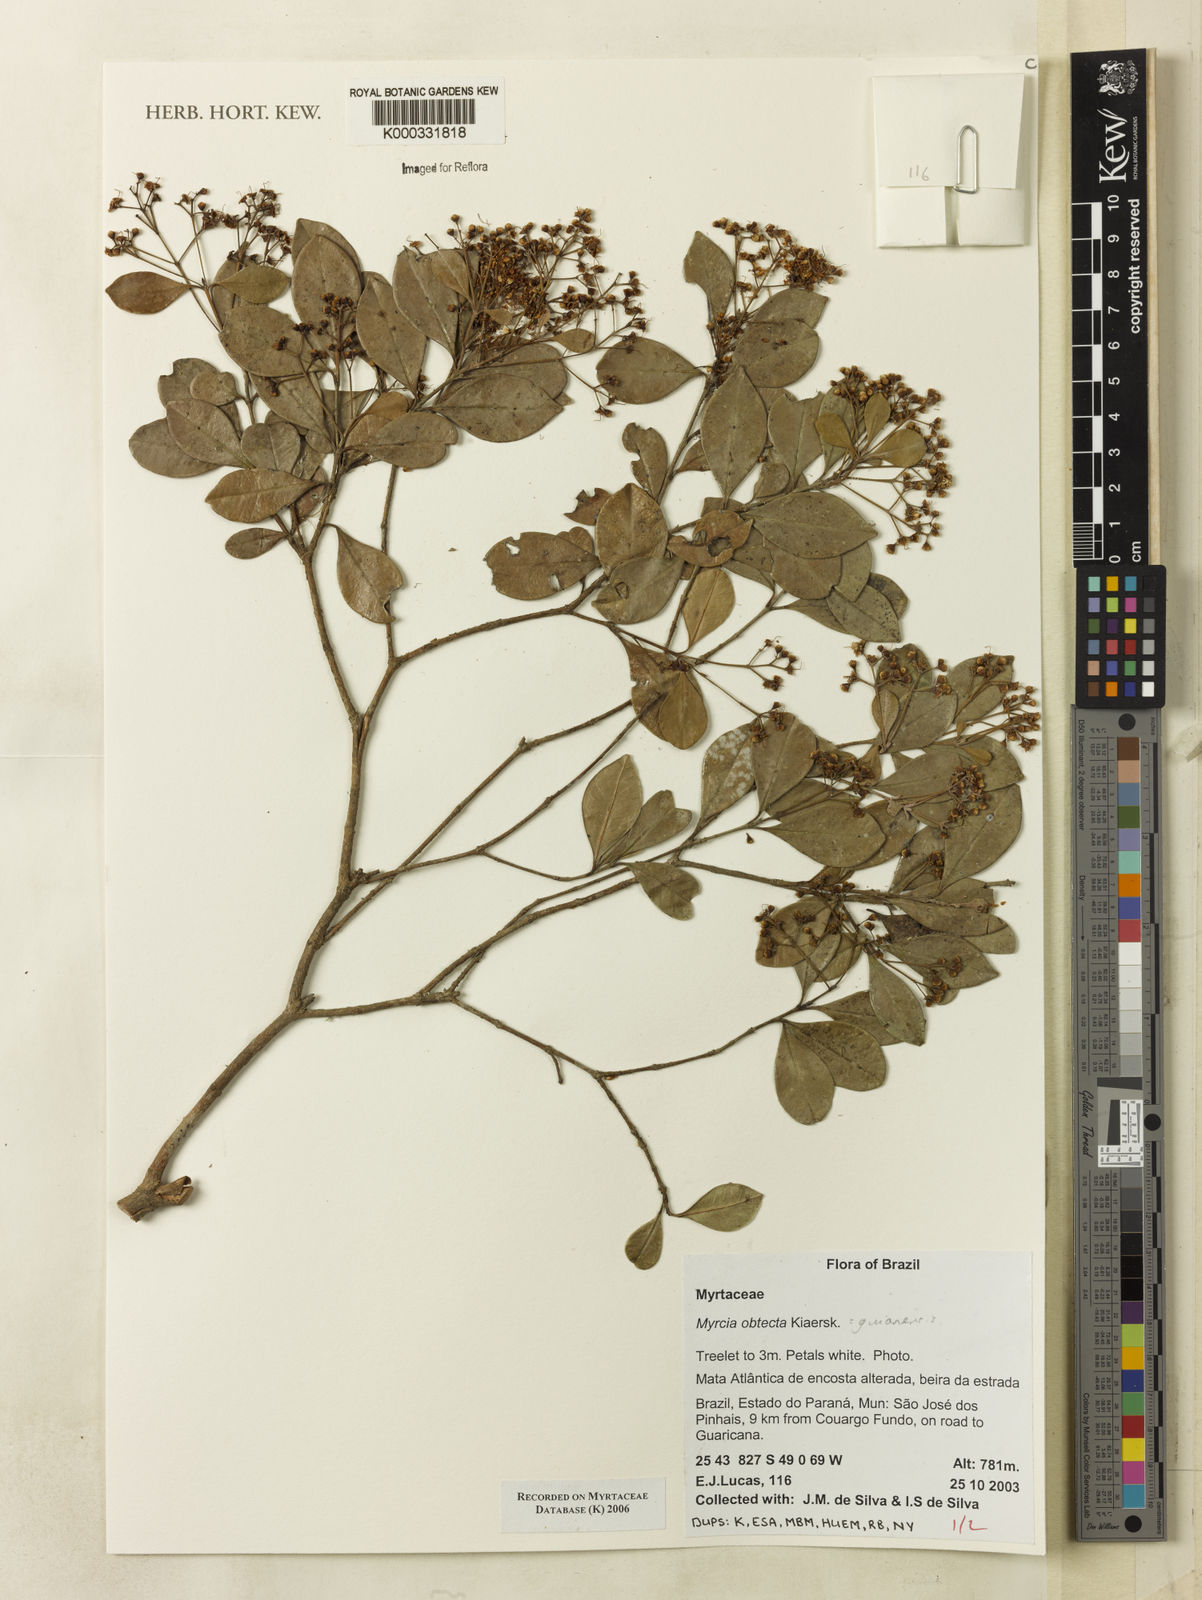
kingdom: Plantae
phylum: Tracheophyta
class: Magnoliopsida
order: Myrtales
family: Myrtaceae
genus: Myrcia
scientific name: Myrcia guianensis
